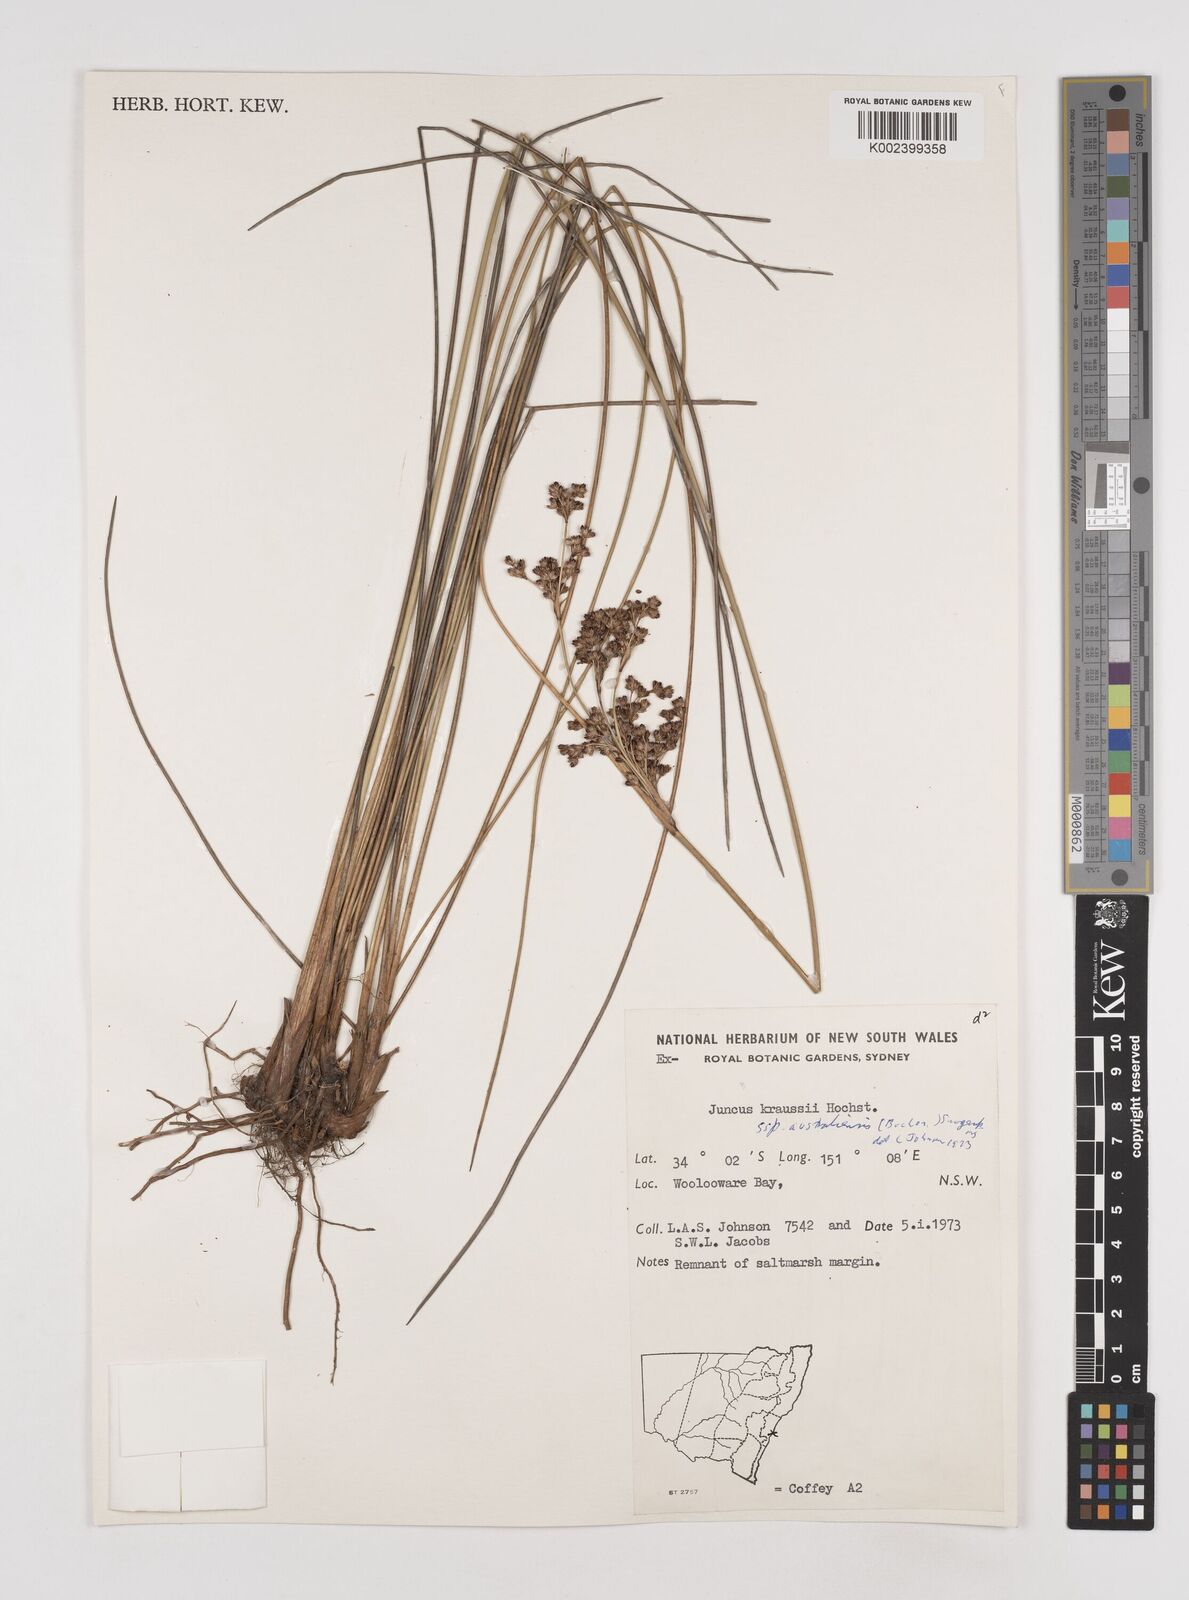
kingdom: Plantae
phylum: Tracheophyta
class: Liliopsida
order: Poales
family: Juncaceae
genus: Juncus
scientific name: Juncus kraussii
